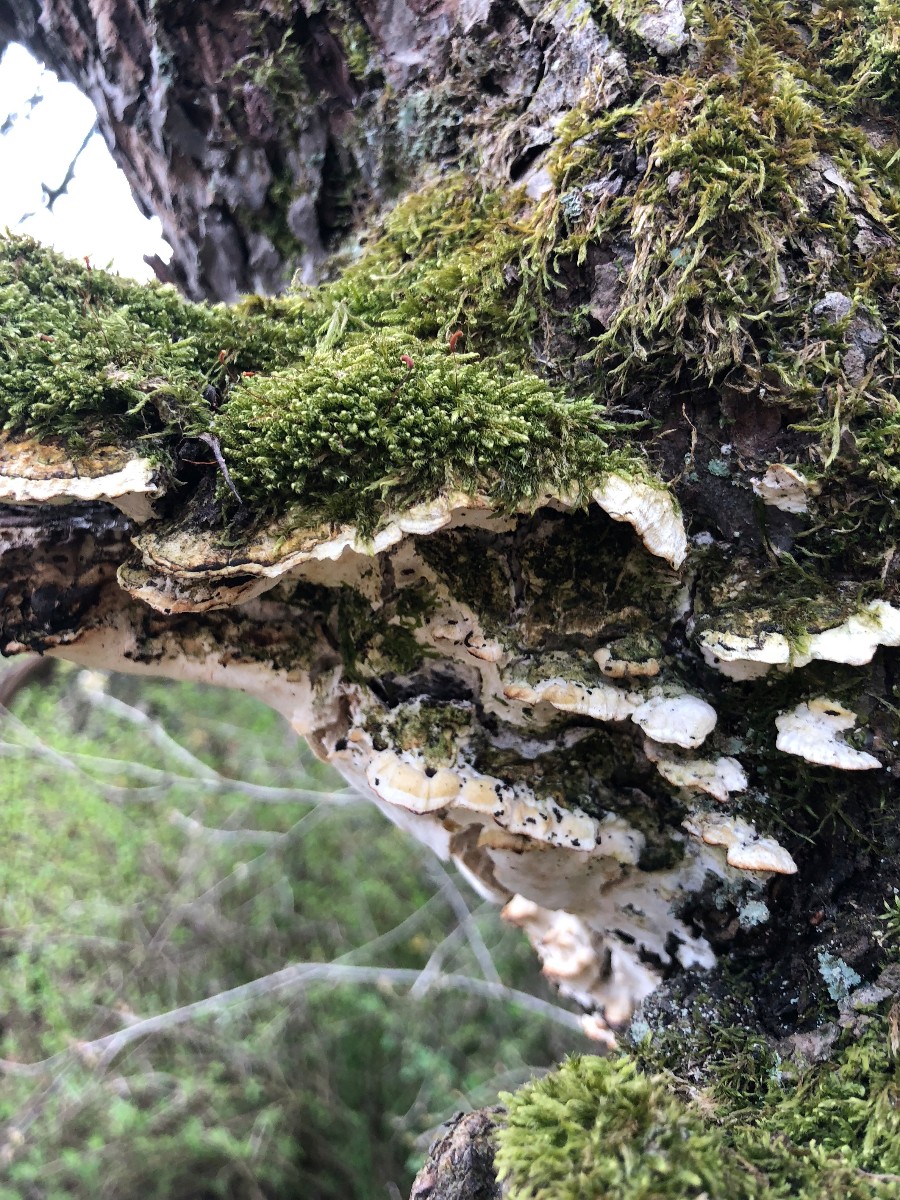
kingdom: Fungi
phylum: Basidiomycota
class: Agaricomycetes
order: Hymenochaetales
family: Oxyporaceae
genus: Oxyporus
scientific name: Oxyporus populinus
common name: sammenvokset trylleporesvamp
